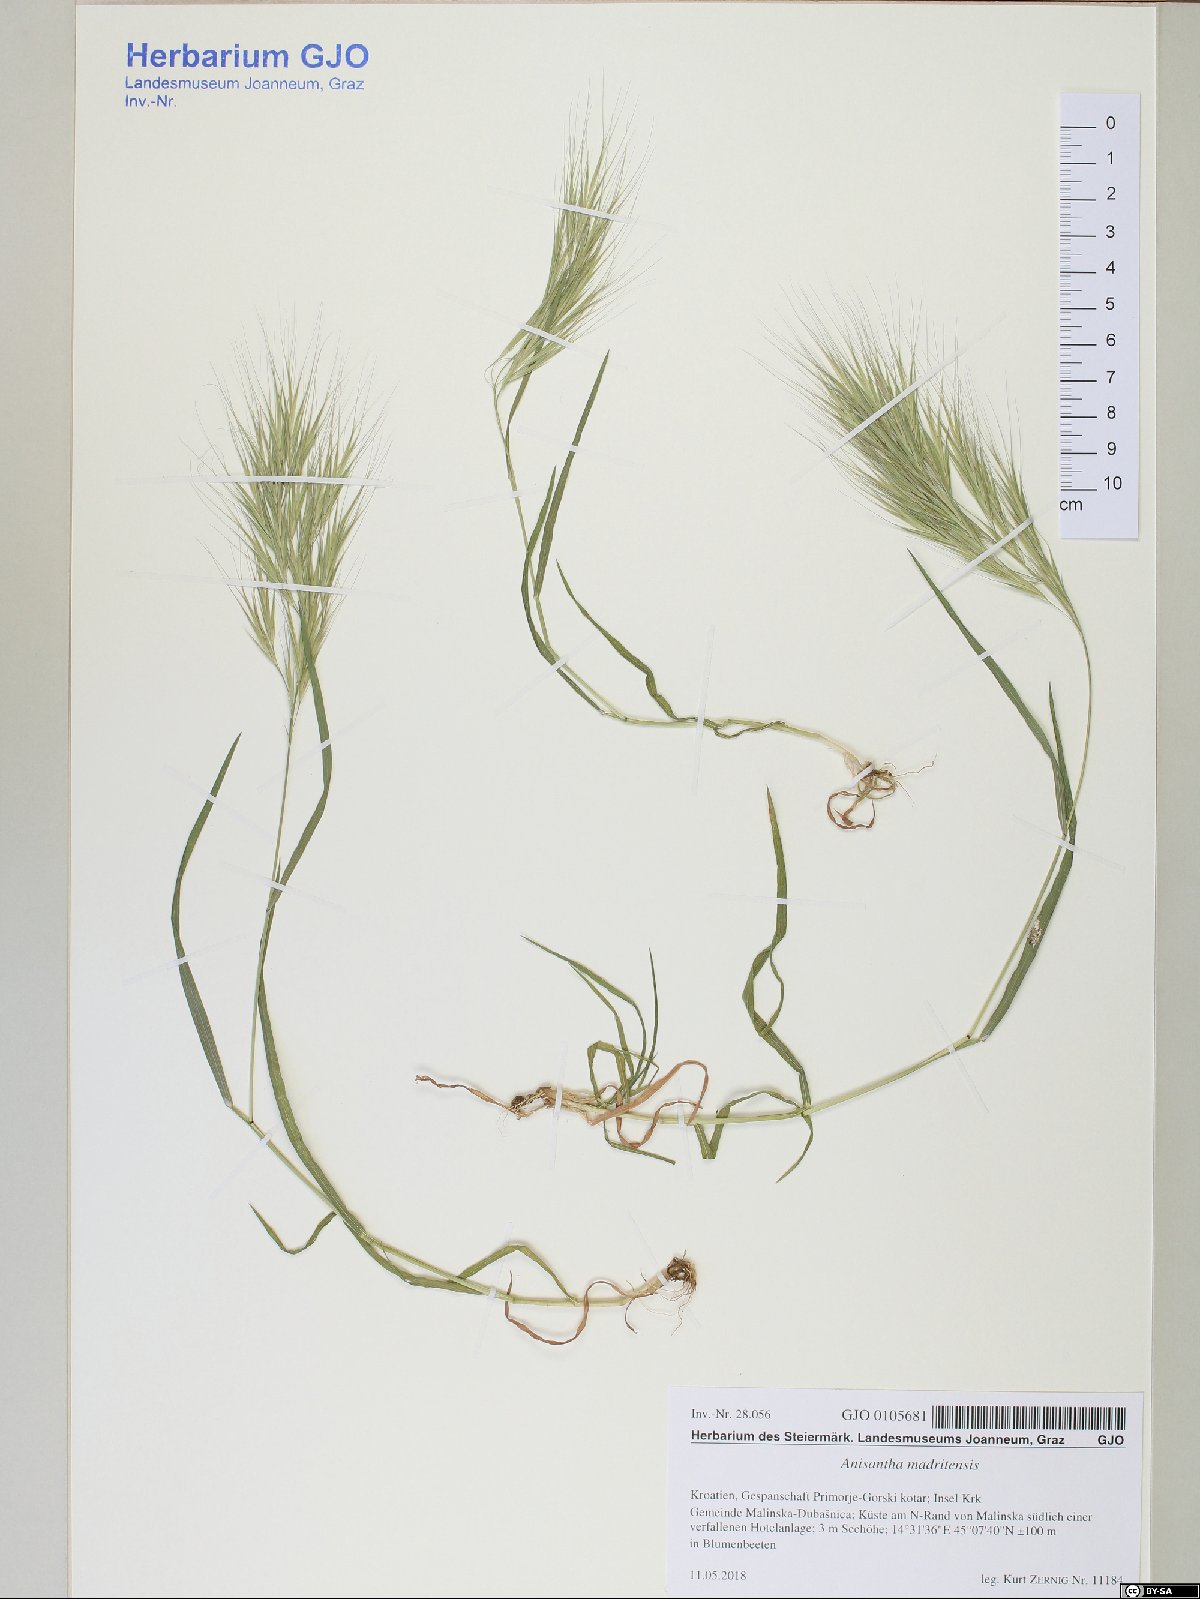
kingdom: Plantae
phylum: Tracheophyta
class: Liliopsida
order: Poales
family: Poaceae
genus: Bromus
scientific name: Bromus madritensis
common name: Compact brome
